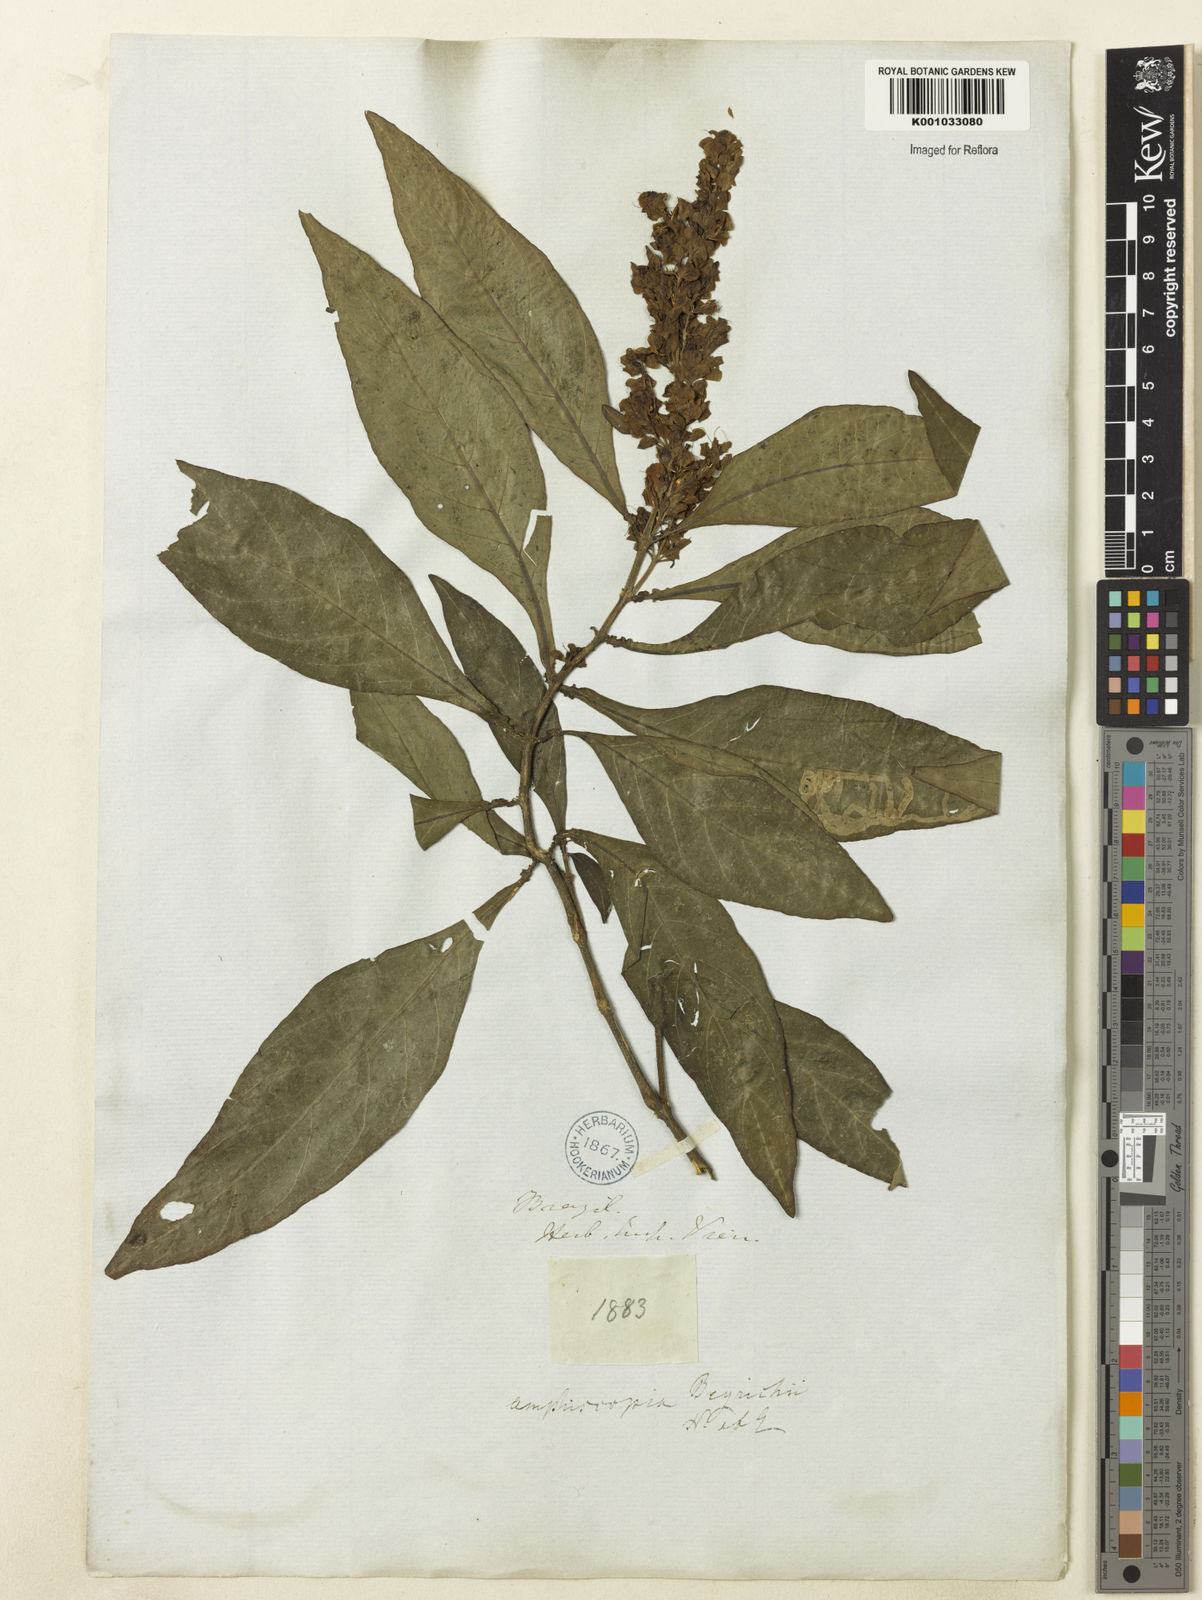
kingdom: Plantae
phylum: Tracheophyta
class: Magnoliopsida
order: Lamiales
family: Acanthaceae
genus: Dianthera
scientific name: Dianthera brasiliensis
